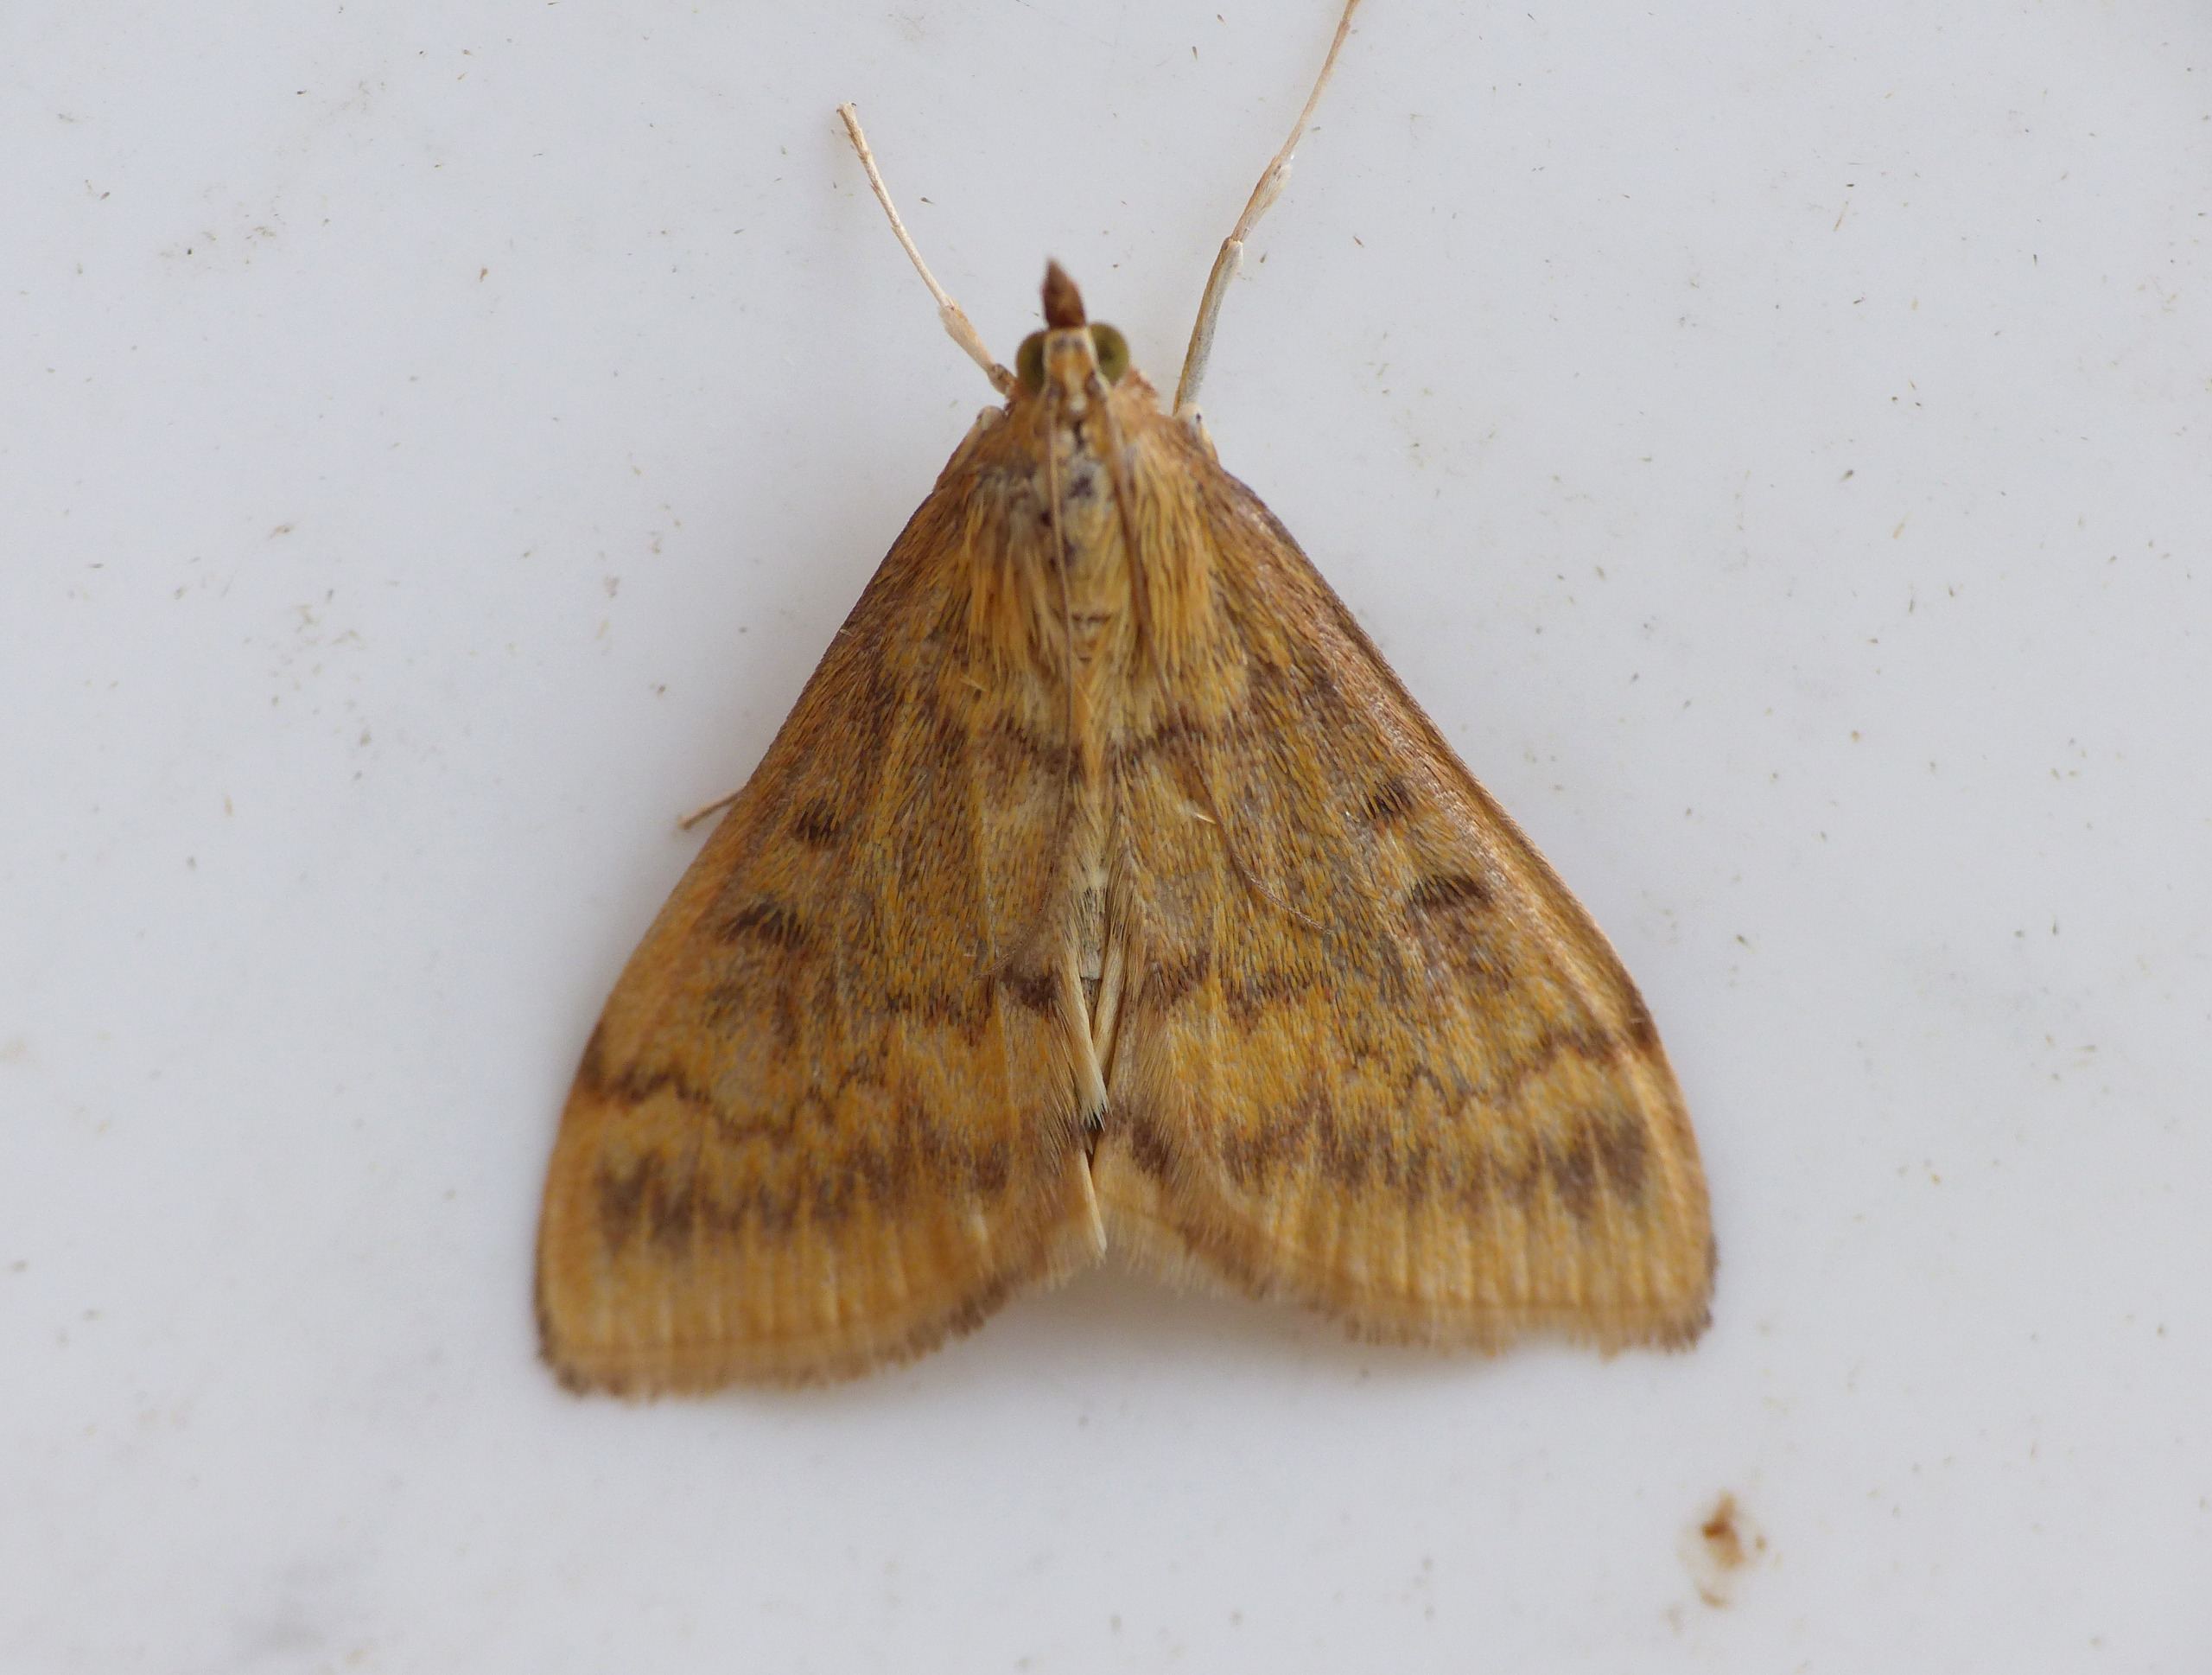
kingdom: Animalia
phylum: Arthropoda
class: Insecta
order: Lepidoptera
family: Crambidae
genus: Ostrinia
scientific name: Ostrinia nubilalis
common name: Majshalvmøl
